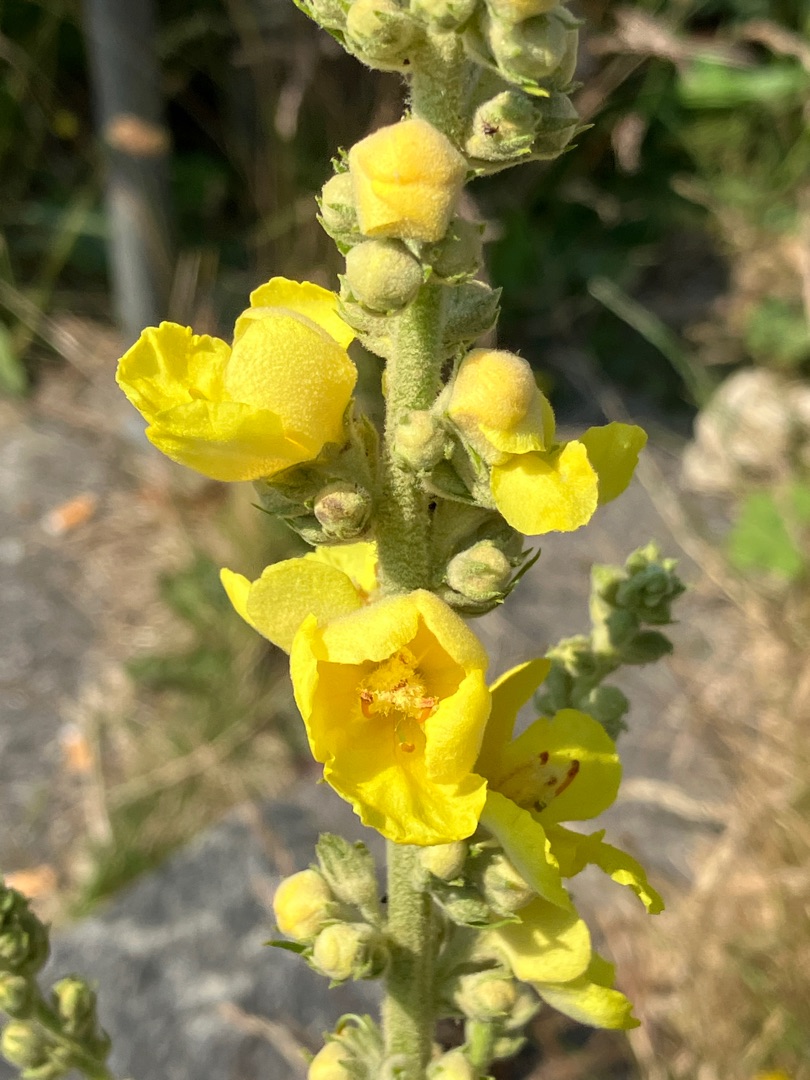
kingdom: Plantae
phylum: Tracheophyta
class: Magnoliopsida
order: Lamiales
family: Scrophulariaceae
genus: Verbascum
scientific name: Verbascum phlomoides
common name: Hjertebladet kongelys
